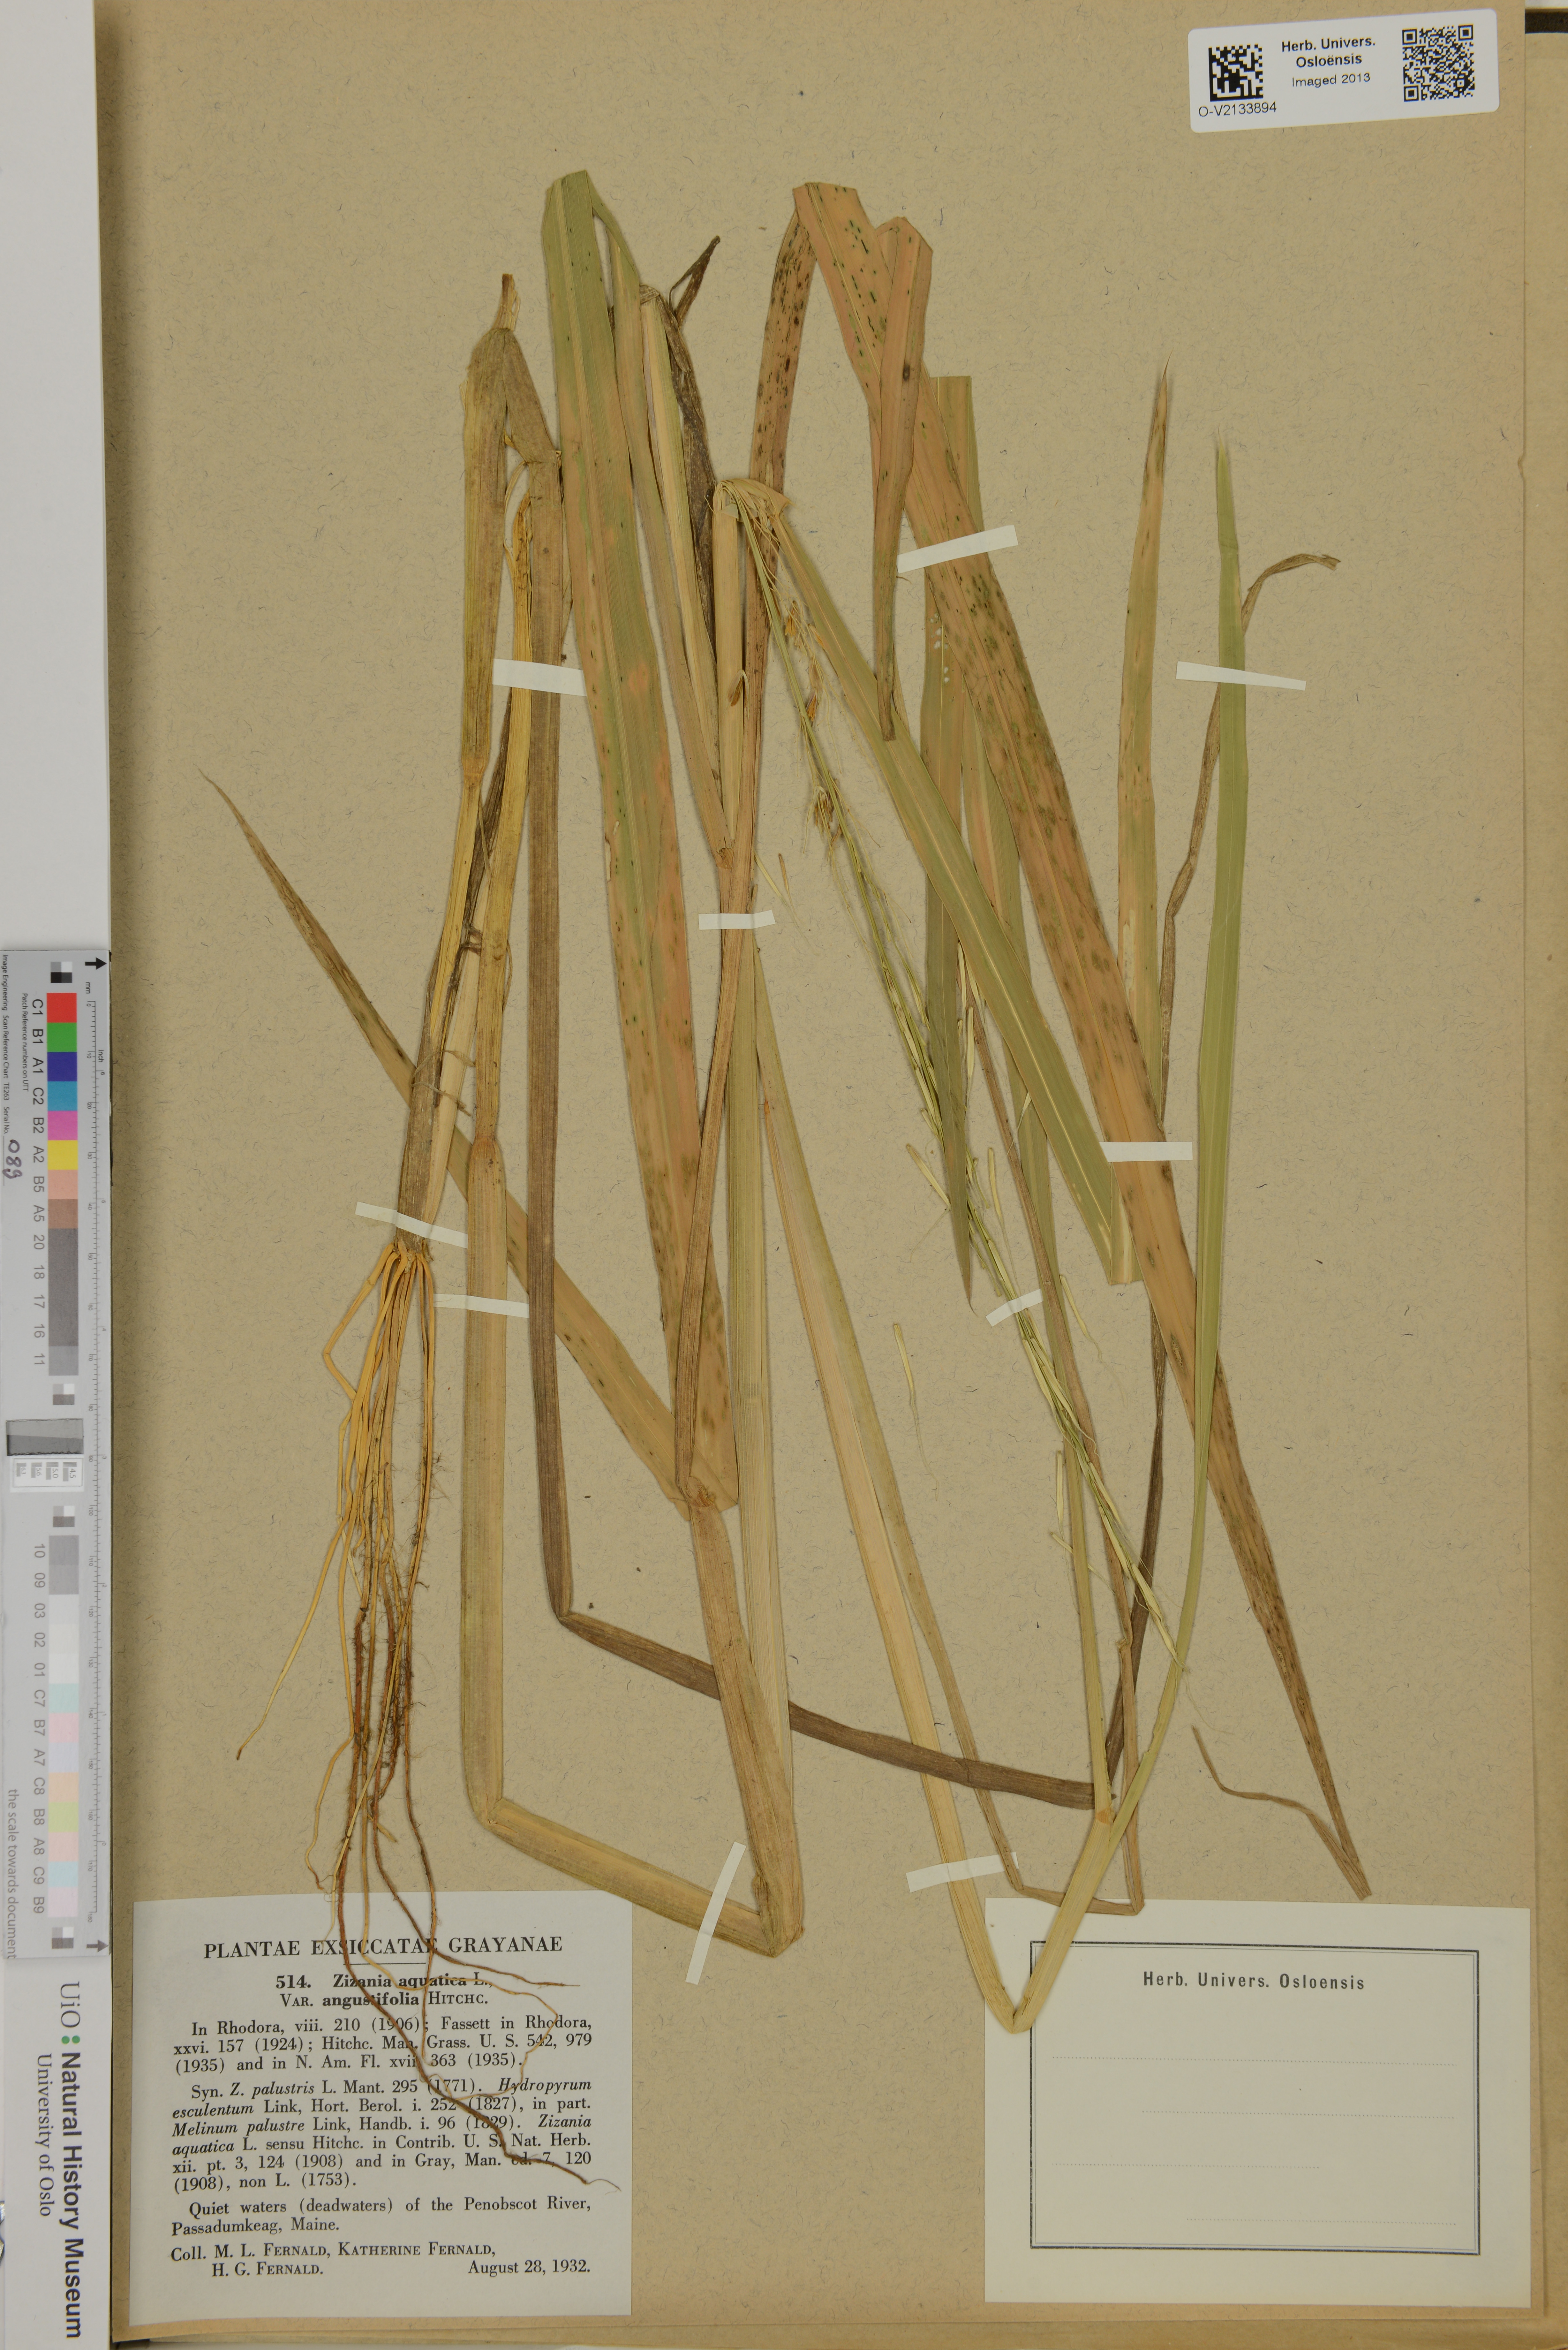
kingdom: Plantae
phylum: Tracheophyta
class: Liliopsida
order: Poales
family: Poaceae
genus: Zizania
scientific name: Zizania aquatica
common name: Annual wildrice
